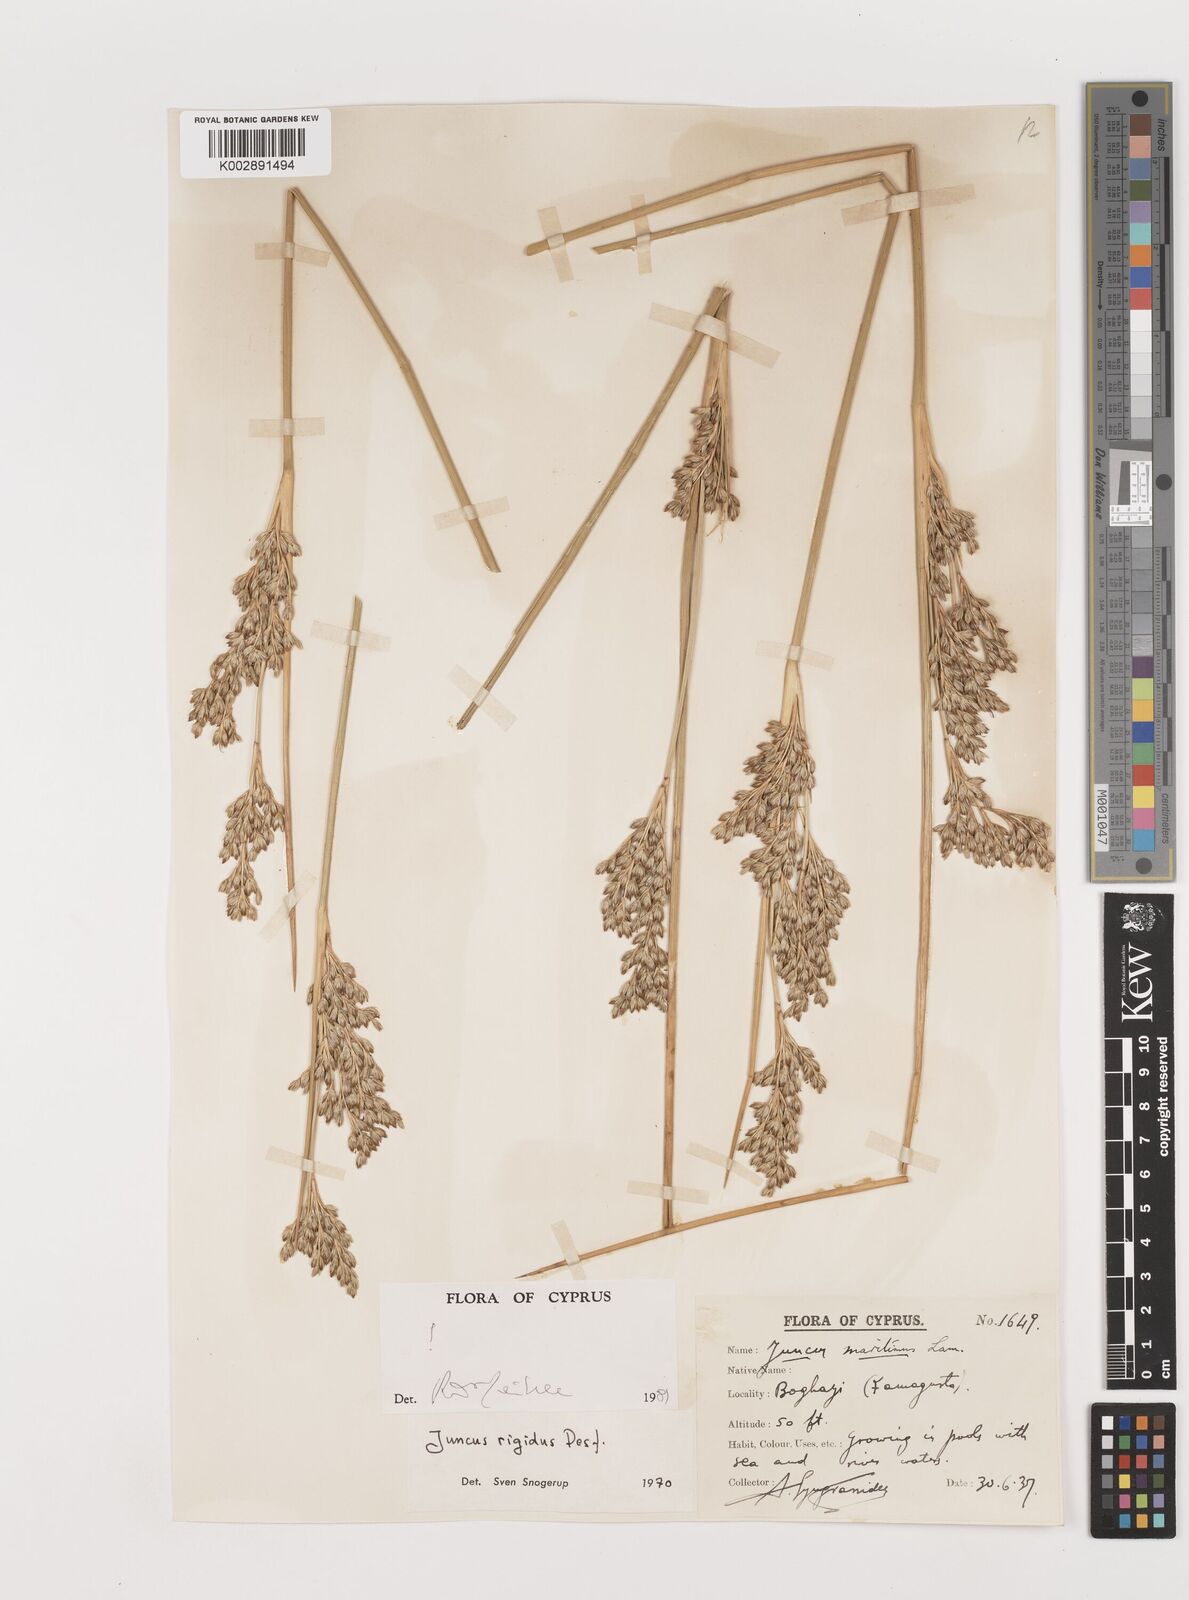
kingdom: Plantae
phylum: Tracheophyta
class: Liliopsida
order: Poales
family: Juncaceae
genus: Juncus
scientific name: Juncus rigidus
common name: Hard sea rush
